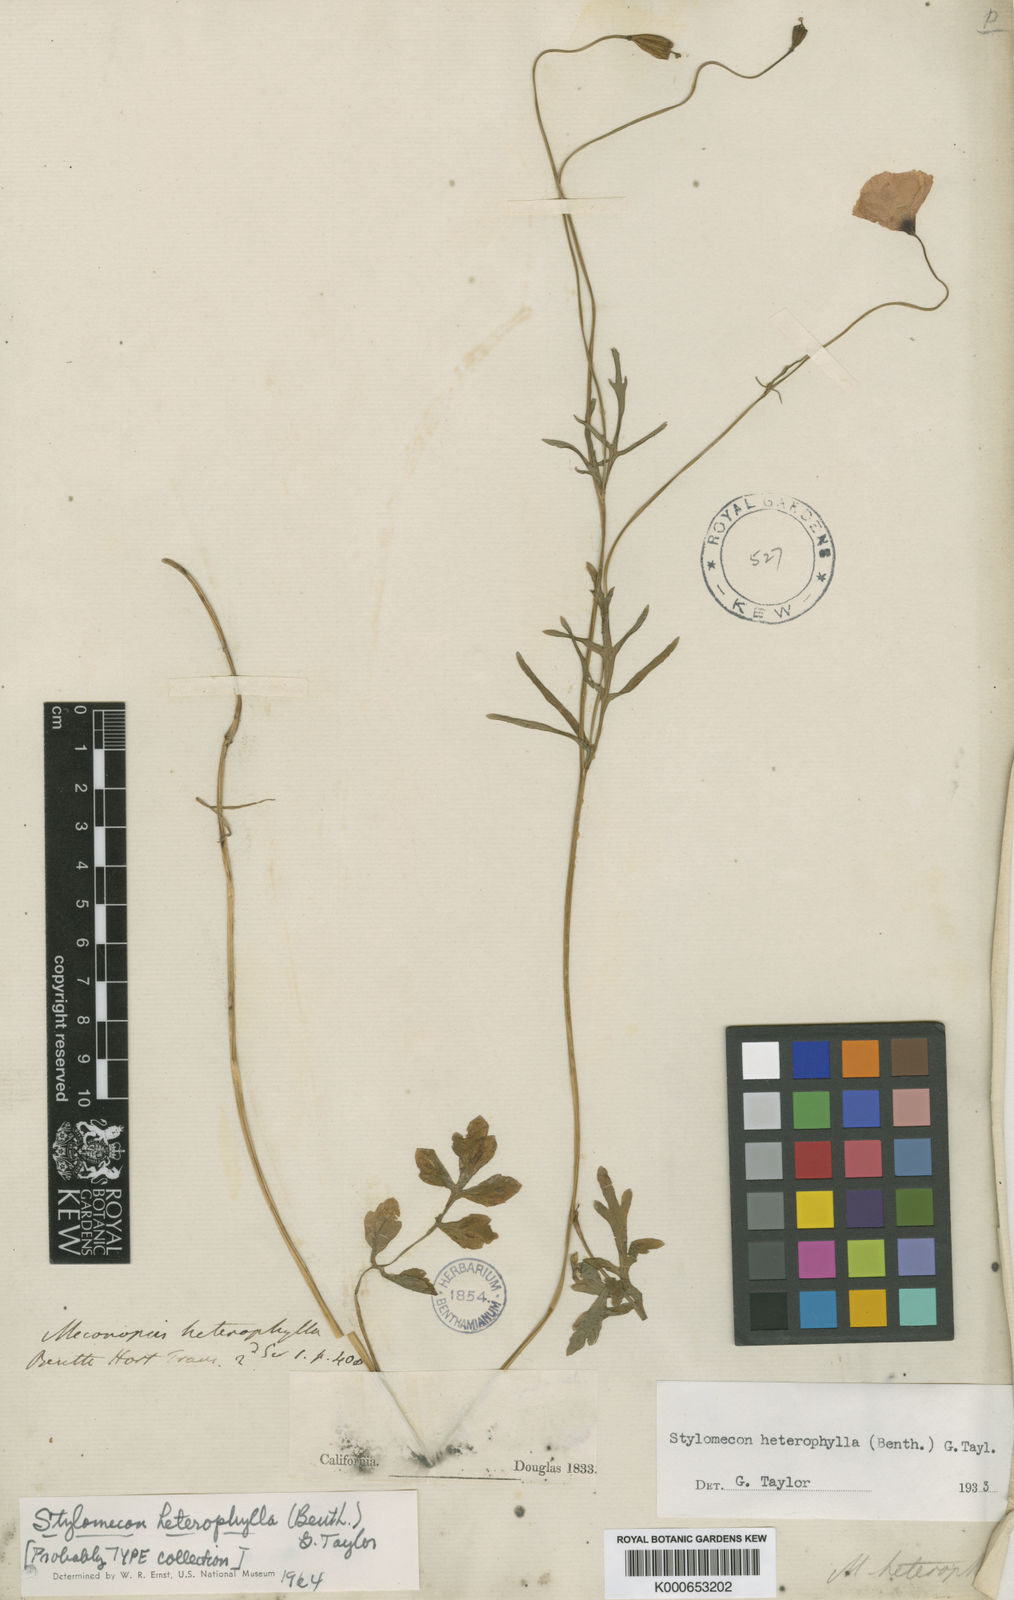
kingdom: Plantae
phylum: Tracheophyta
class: Magnoliopsida
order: Ranunculales
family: Papaveraceae
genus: Stylomecon
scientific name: Stylomecon heterophylla
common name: Flaming-poppy
